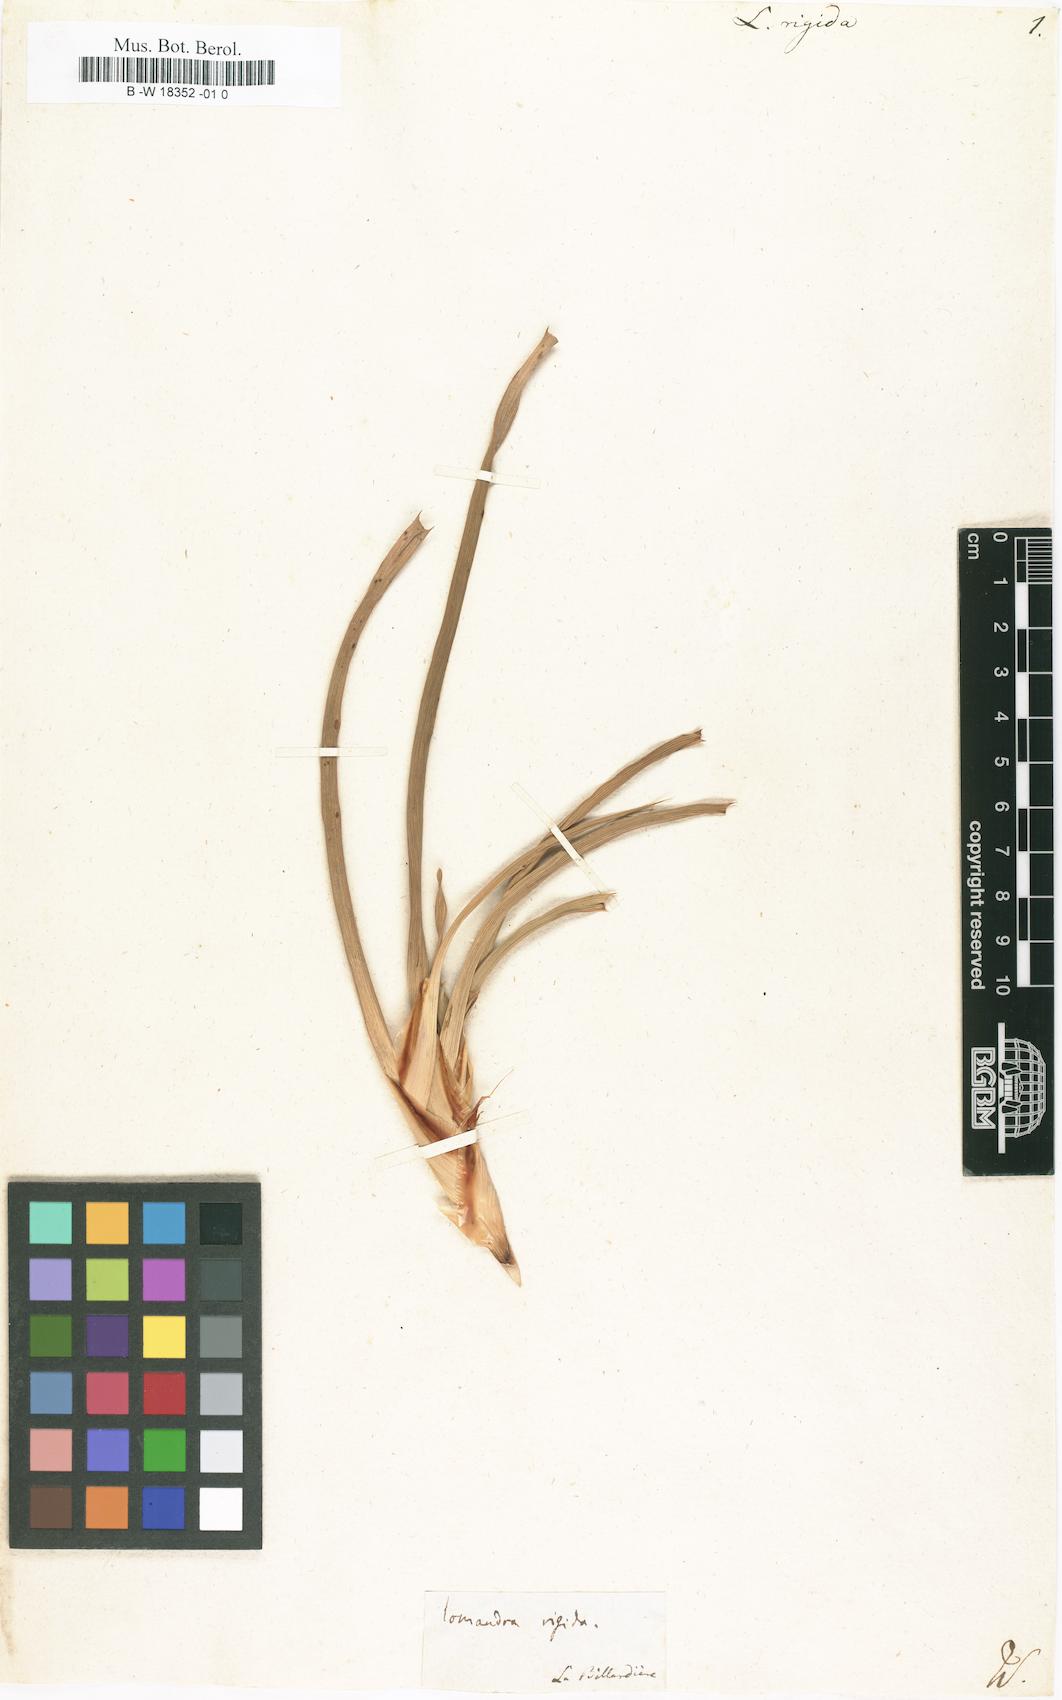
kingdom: Plantae
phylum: Tracheophyta
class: Liliopsida
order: Asparagales
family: Asparagaceae
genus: Lomandra
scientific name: Lomandra rigida
